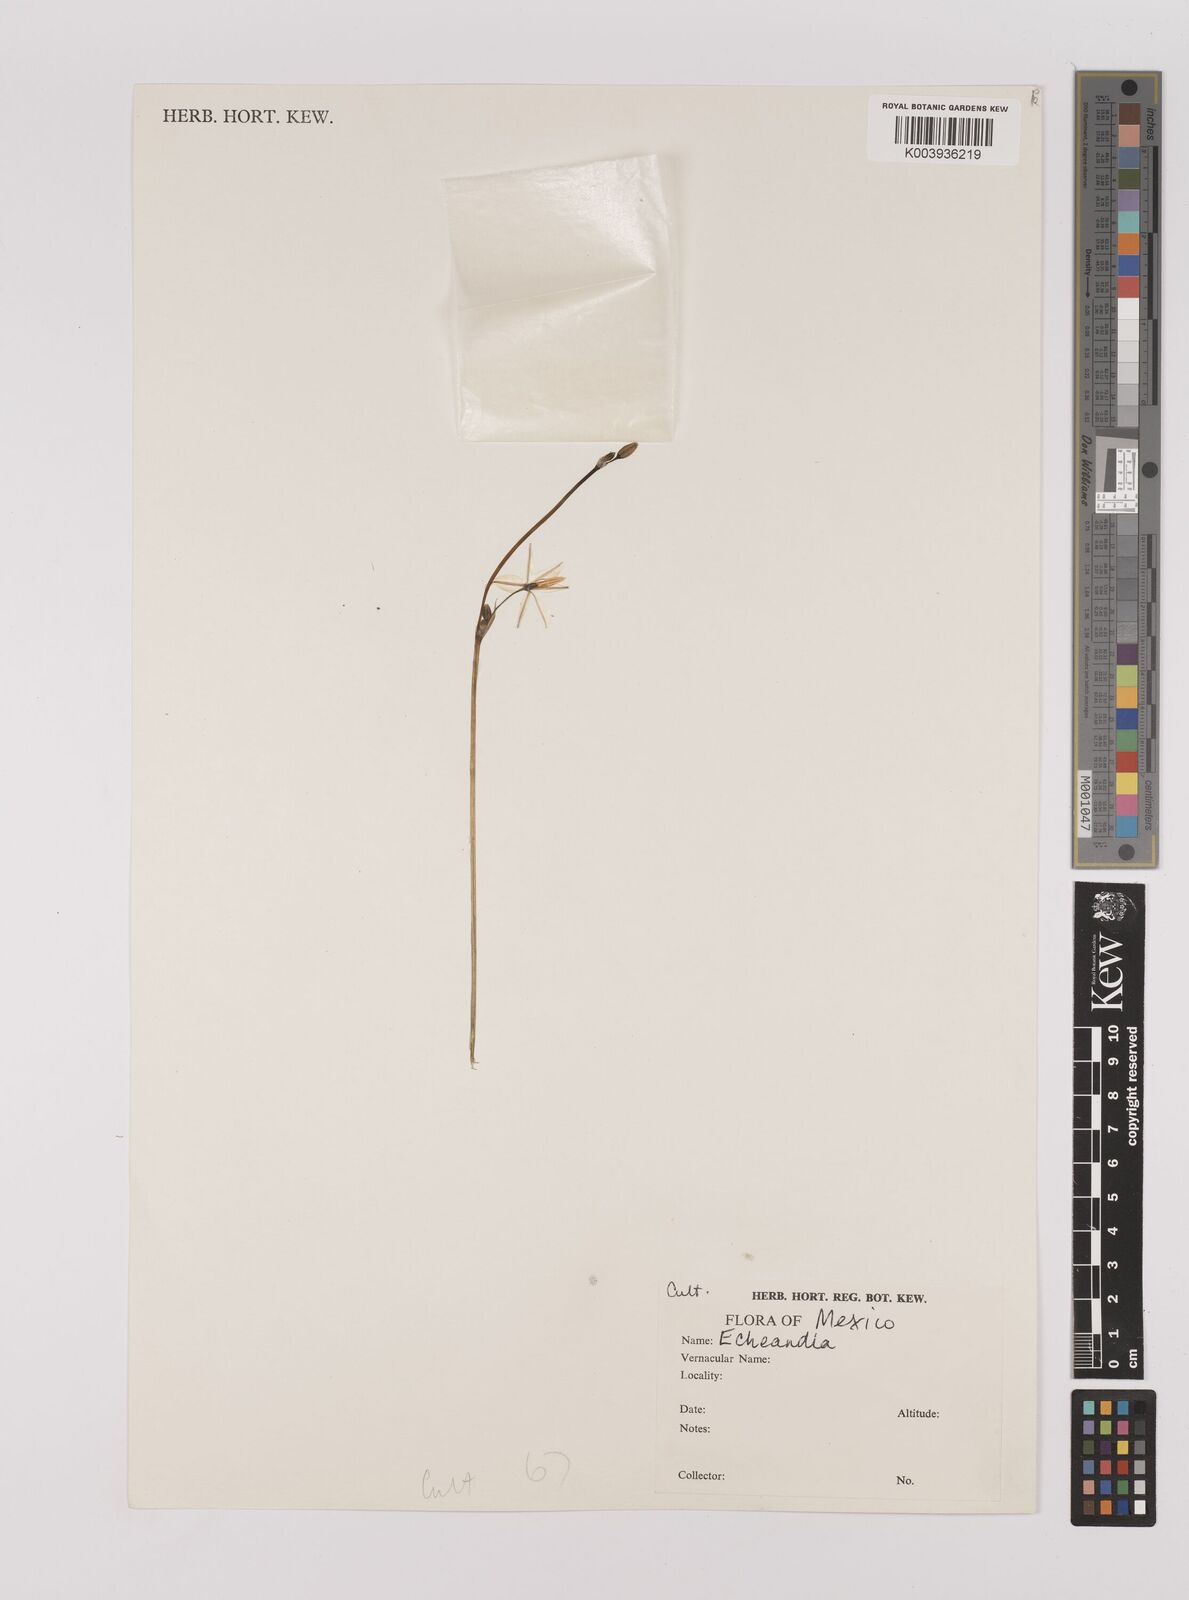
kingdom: Plantae
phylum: Tracheophyta
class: Liliopsida
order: Asparagales
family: Asparagaceae
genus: Echeandia
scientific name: Echeandia
